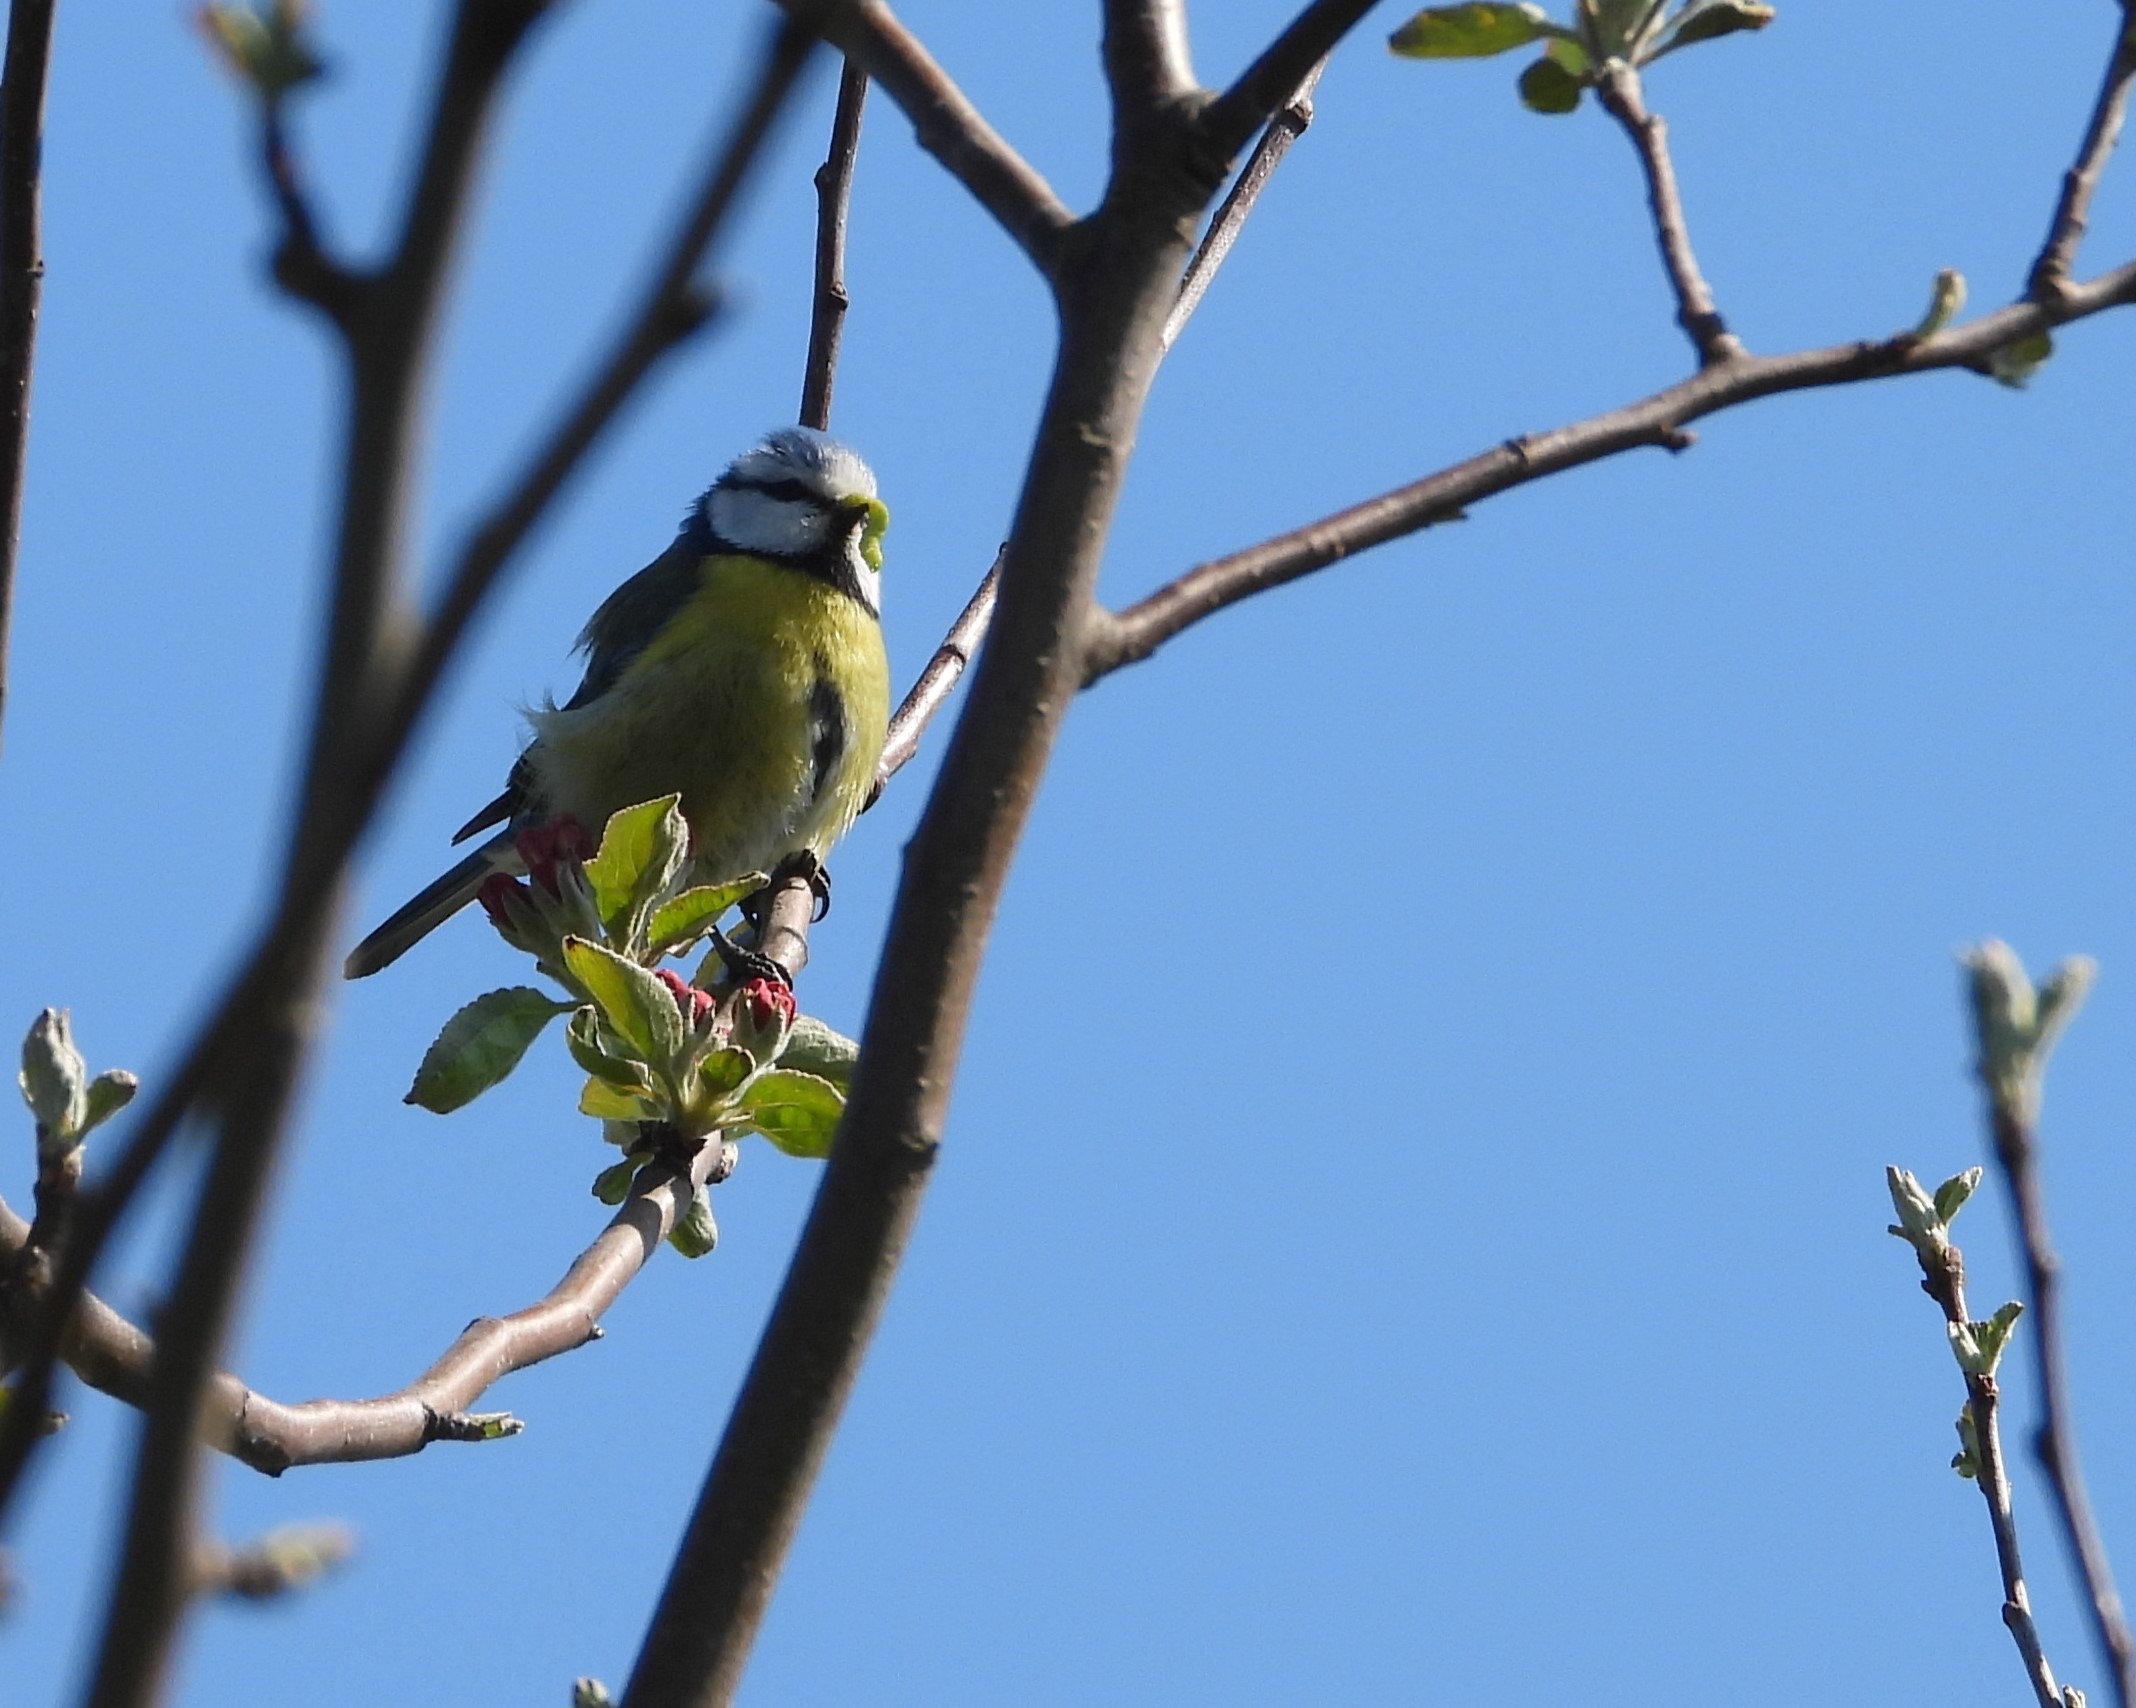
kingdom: Animalia
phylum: Chordata
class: Aves
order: Passeriformes
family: Paridae
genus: Cyanistes
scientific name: Cyanistes caeruleus
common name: Blåmejse
